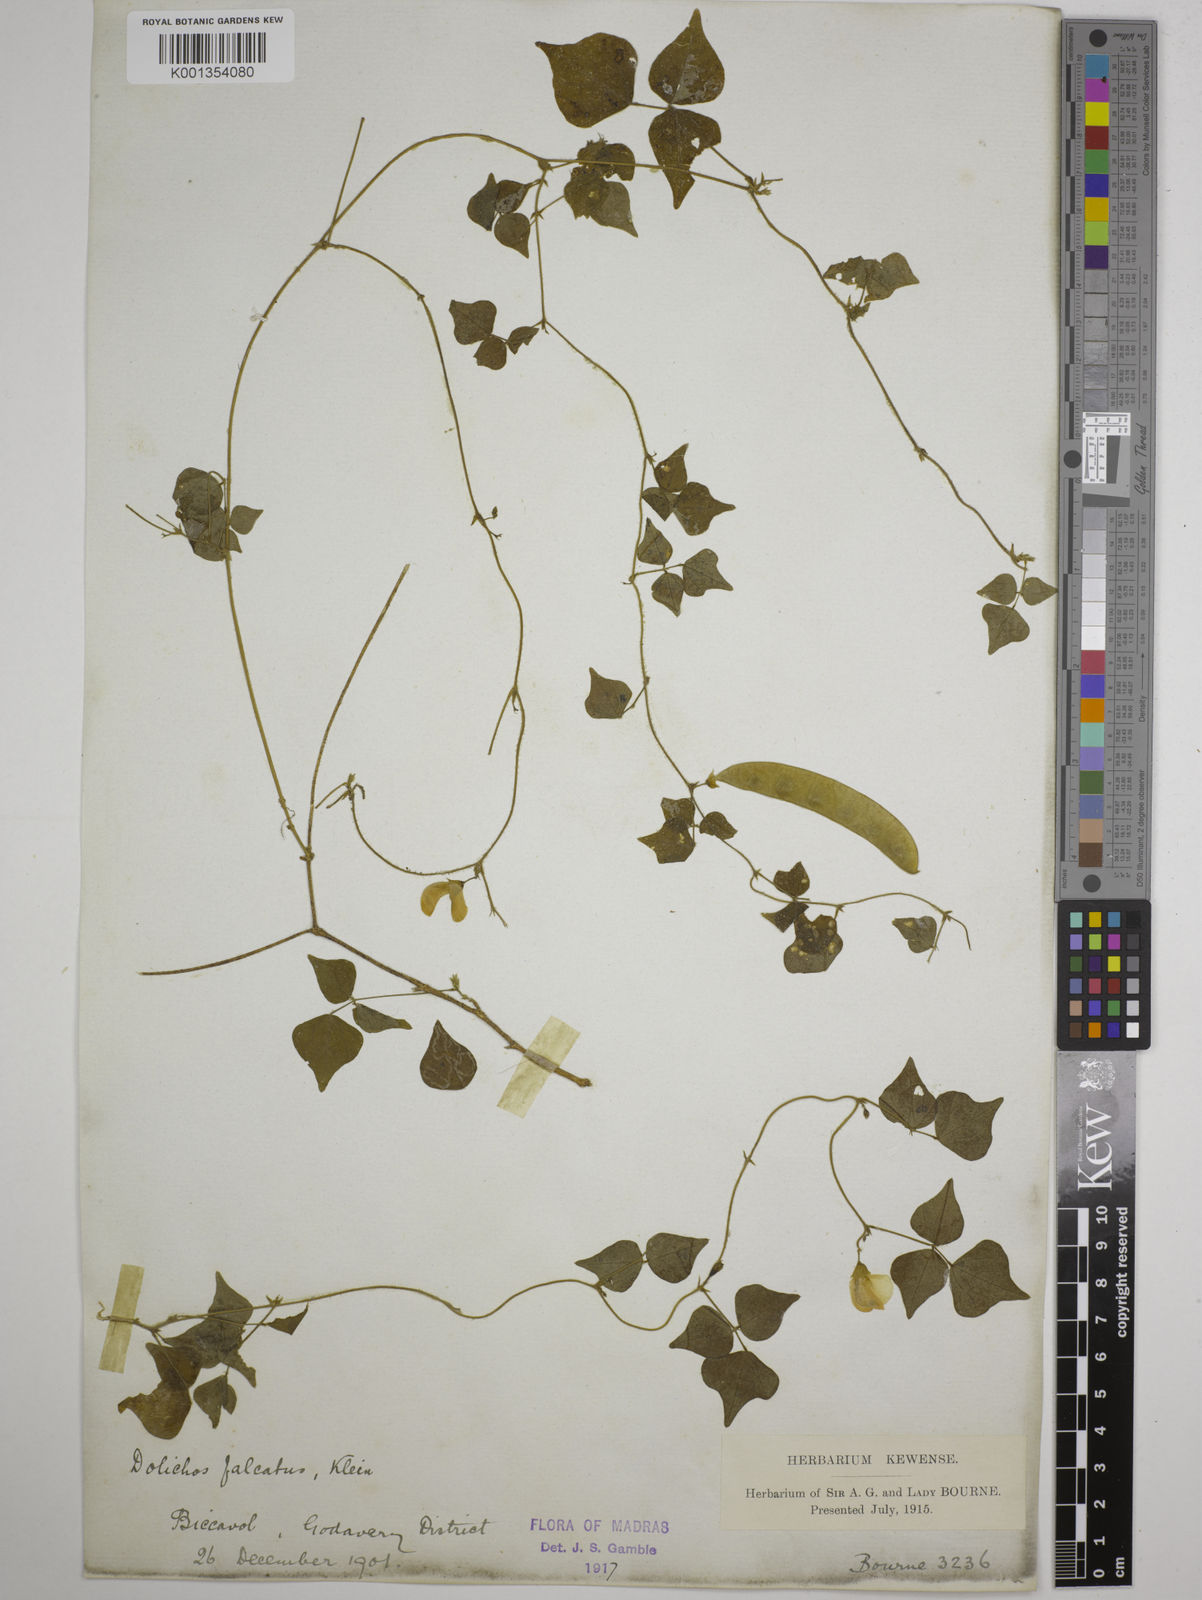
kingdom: Plantae
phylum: Tracheophyta
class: Magnoliopsida
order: Fabales
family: Fabaceae
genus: Dolichos
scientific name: Dolichos
